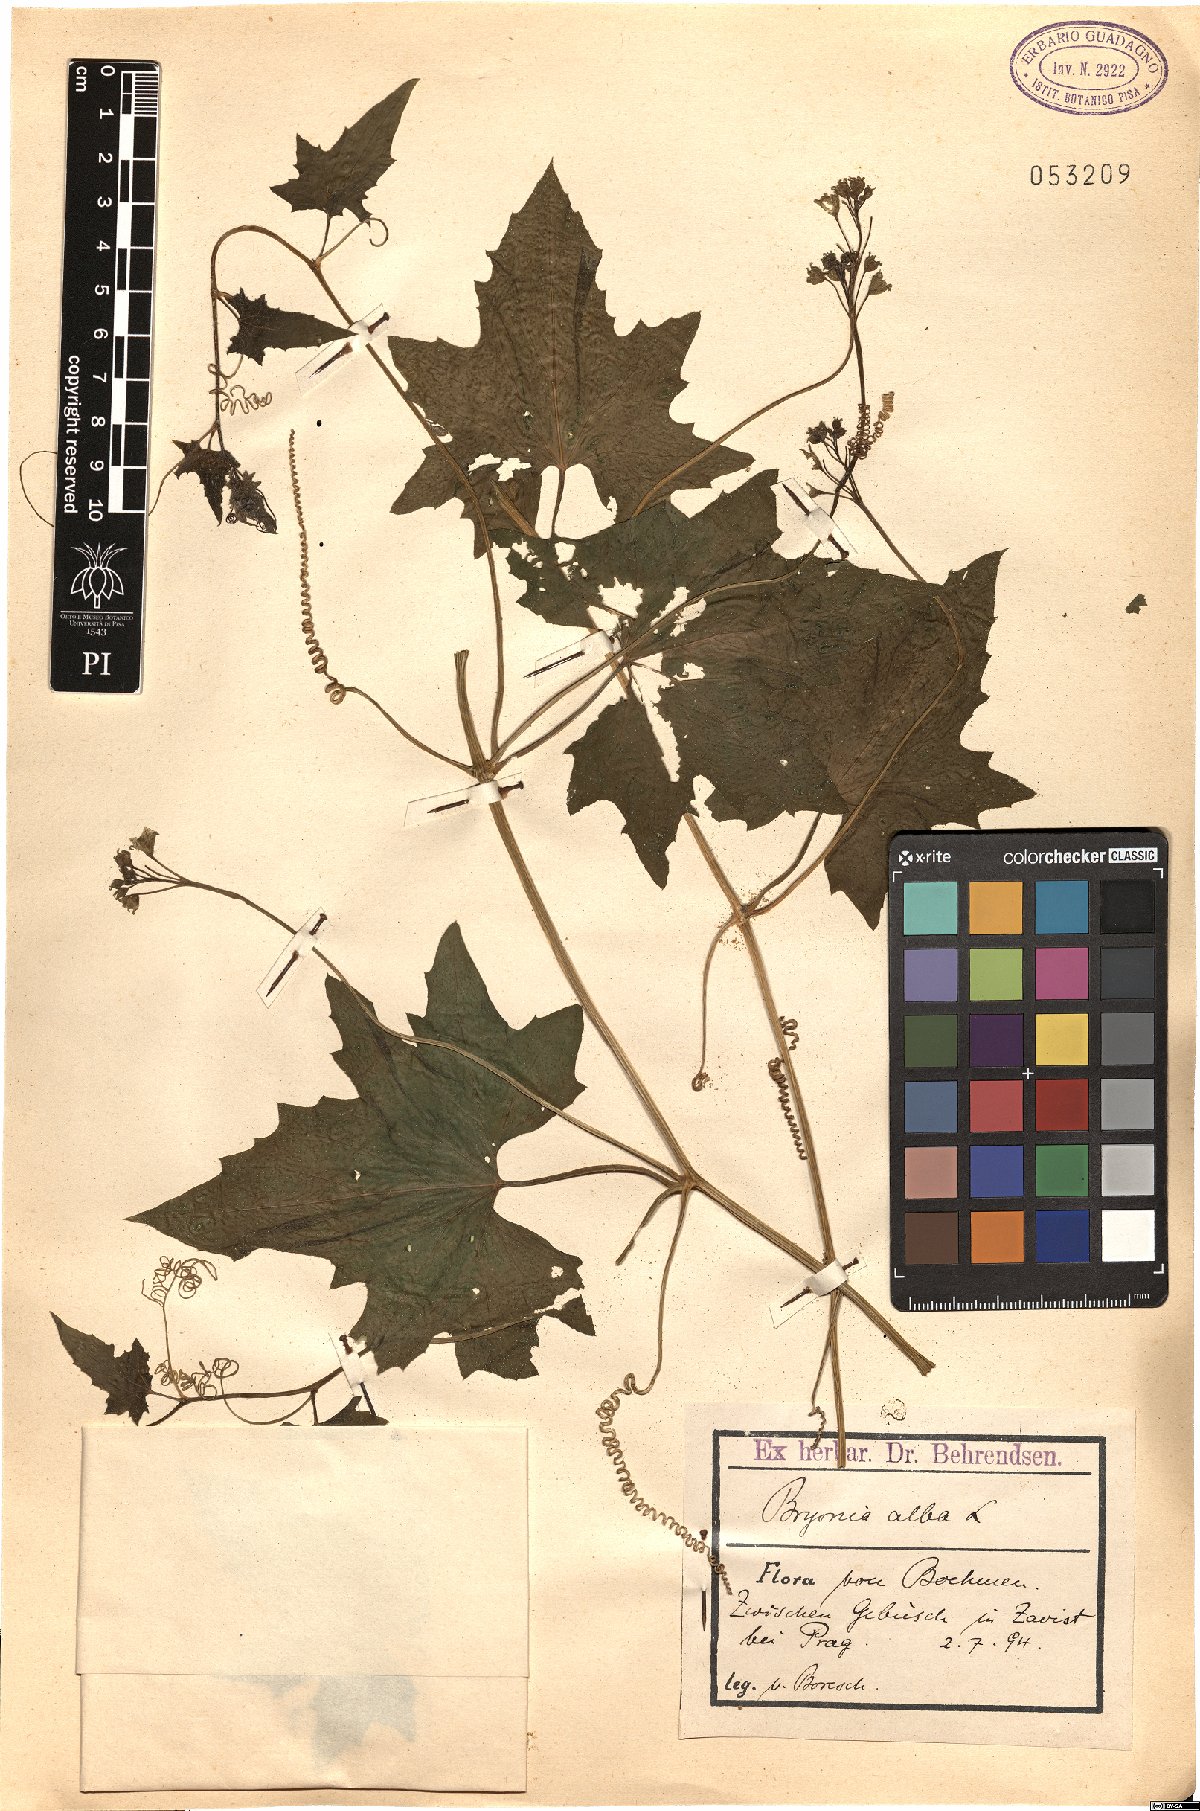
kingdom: Plantae
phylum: Tracheophyta
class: Magnoliopsida
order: Cucurbitales
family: Cucurbitaceae
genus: Bryonia
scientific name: Bryonia alba
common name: White bryony
